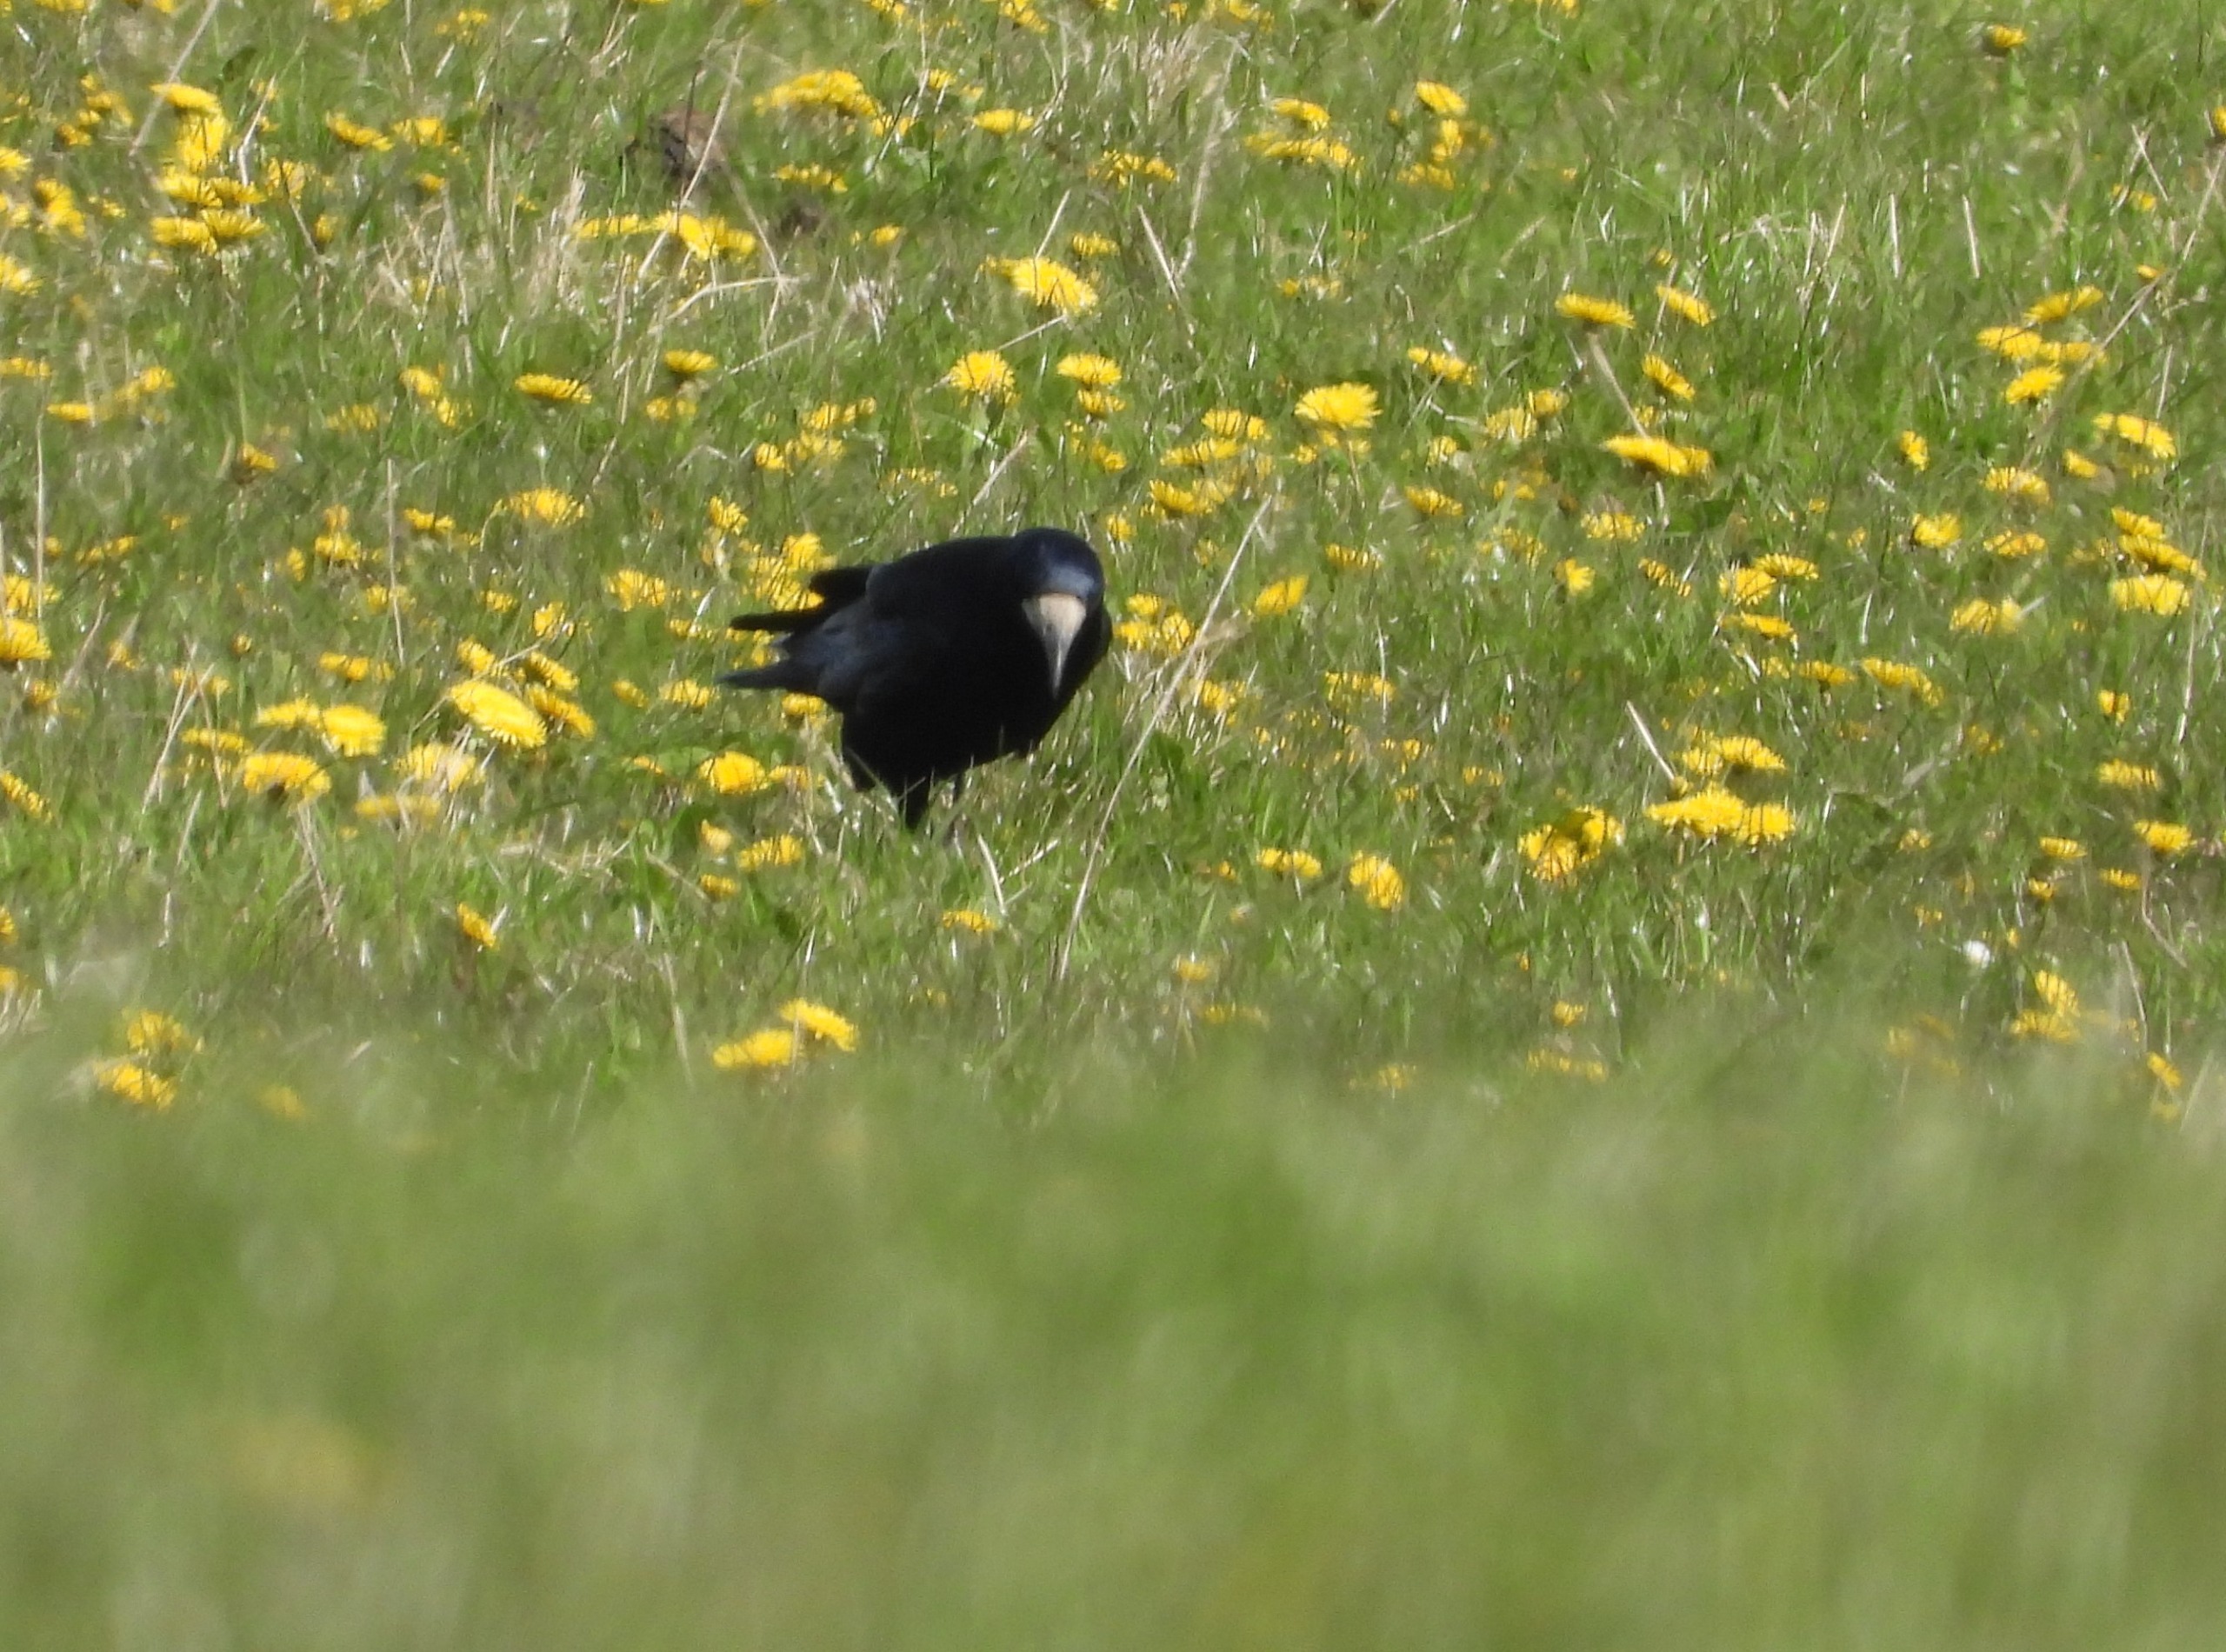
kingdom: Animalia
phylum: Chordata
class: Aves
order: Passeriformes
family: Corvidae
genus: Corvus
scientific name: Corvus frugilegus
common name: Råge
